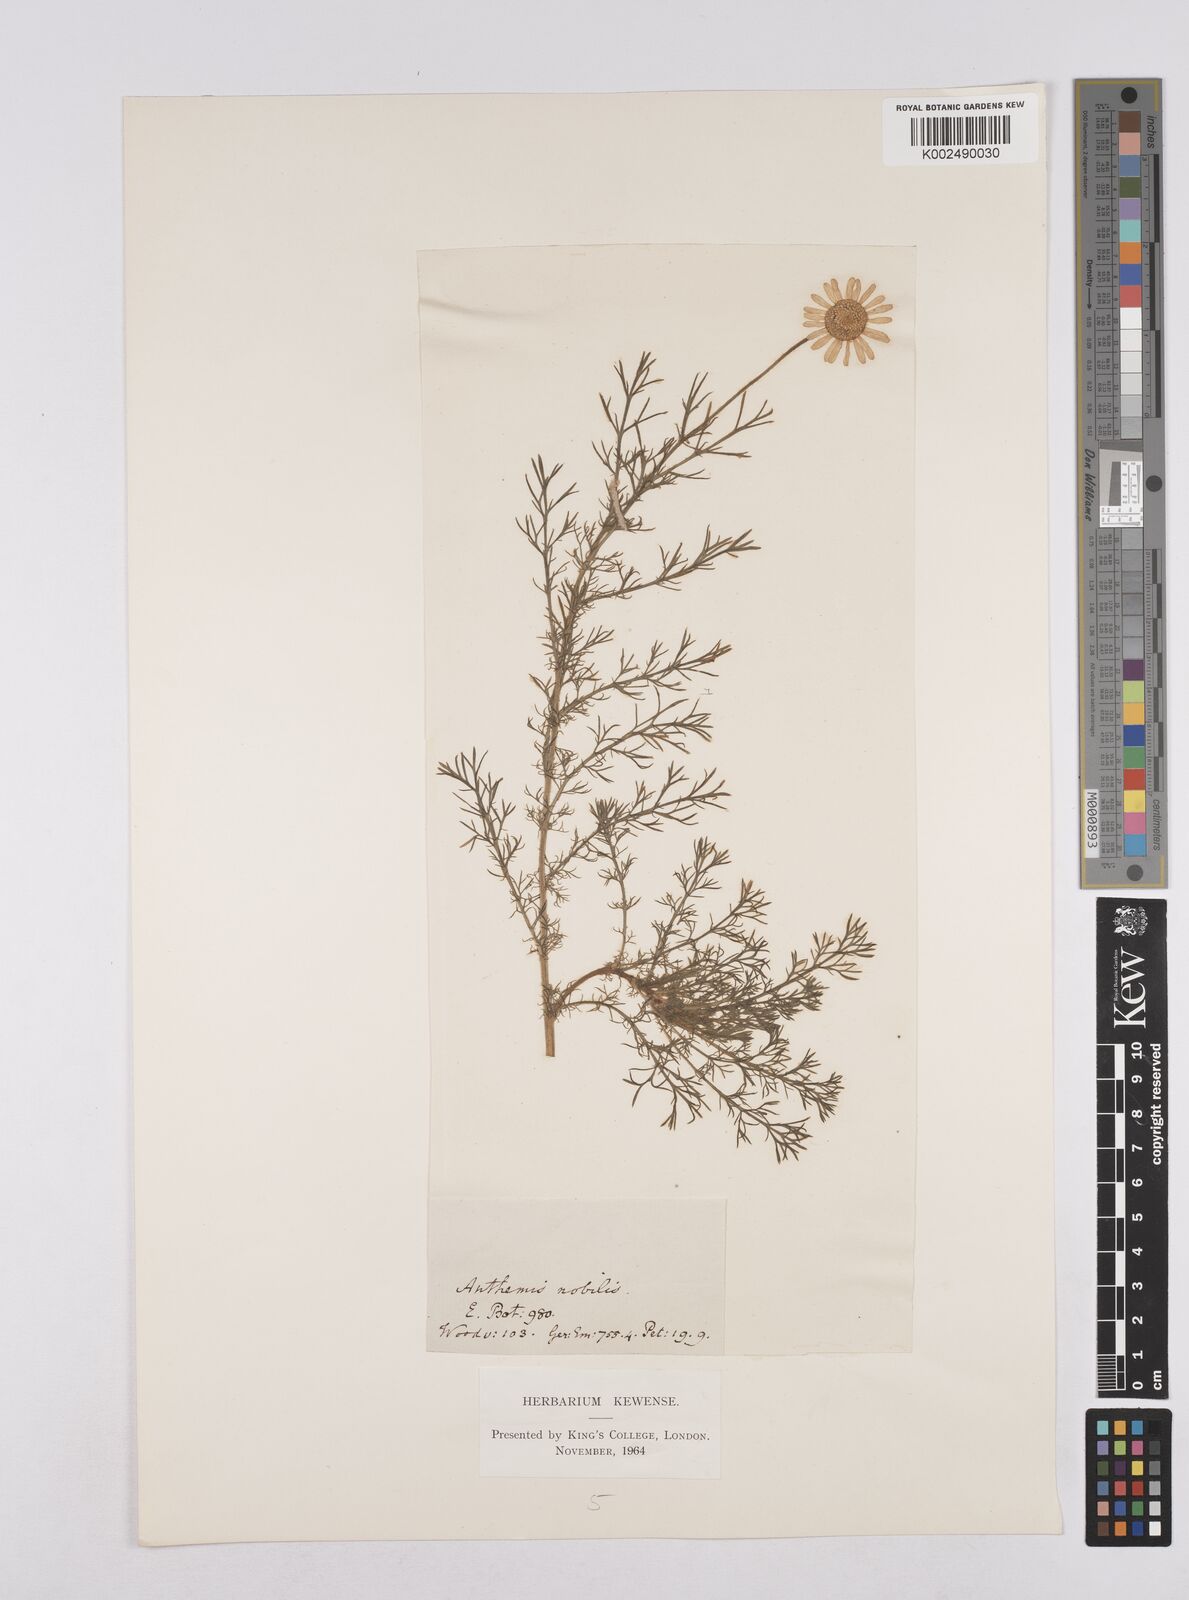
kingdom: Plantae
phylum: Tracheophyta
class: Magnoliopsida
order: Asterales
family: Asteraceae
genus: Chamaemelum
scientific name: Chamaemelum
